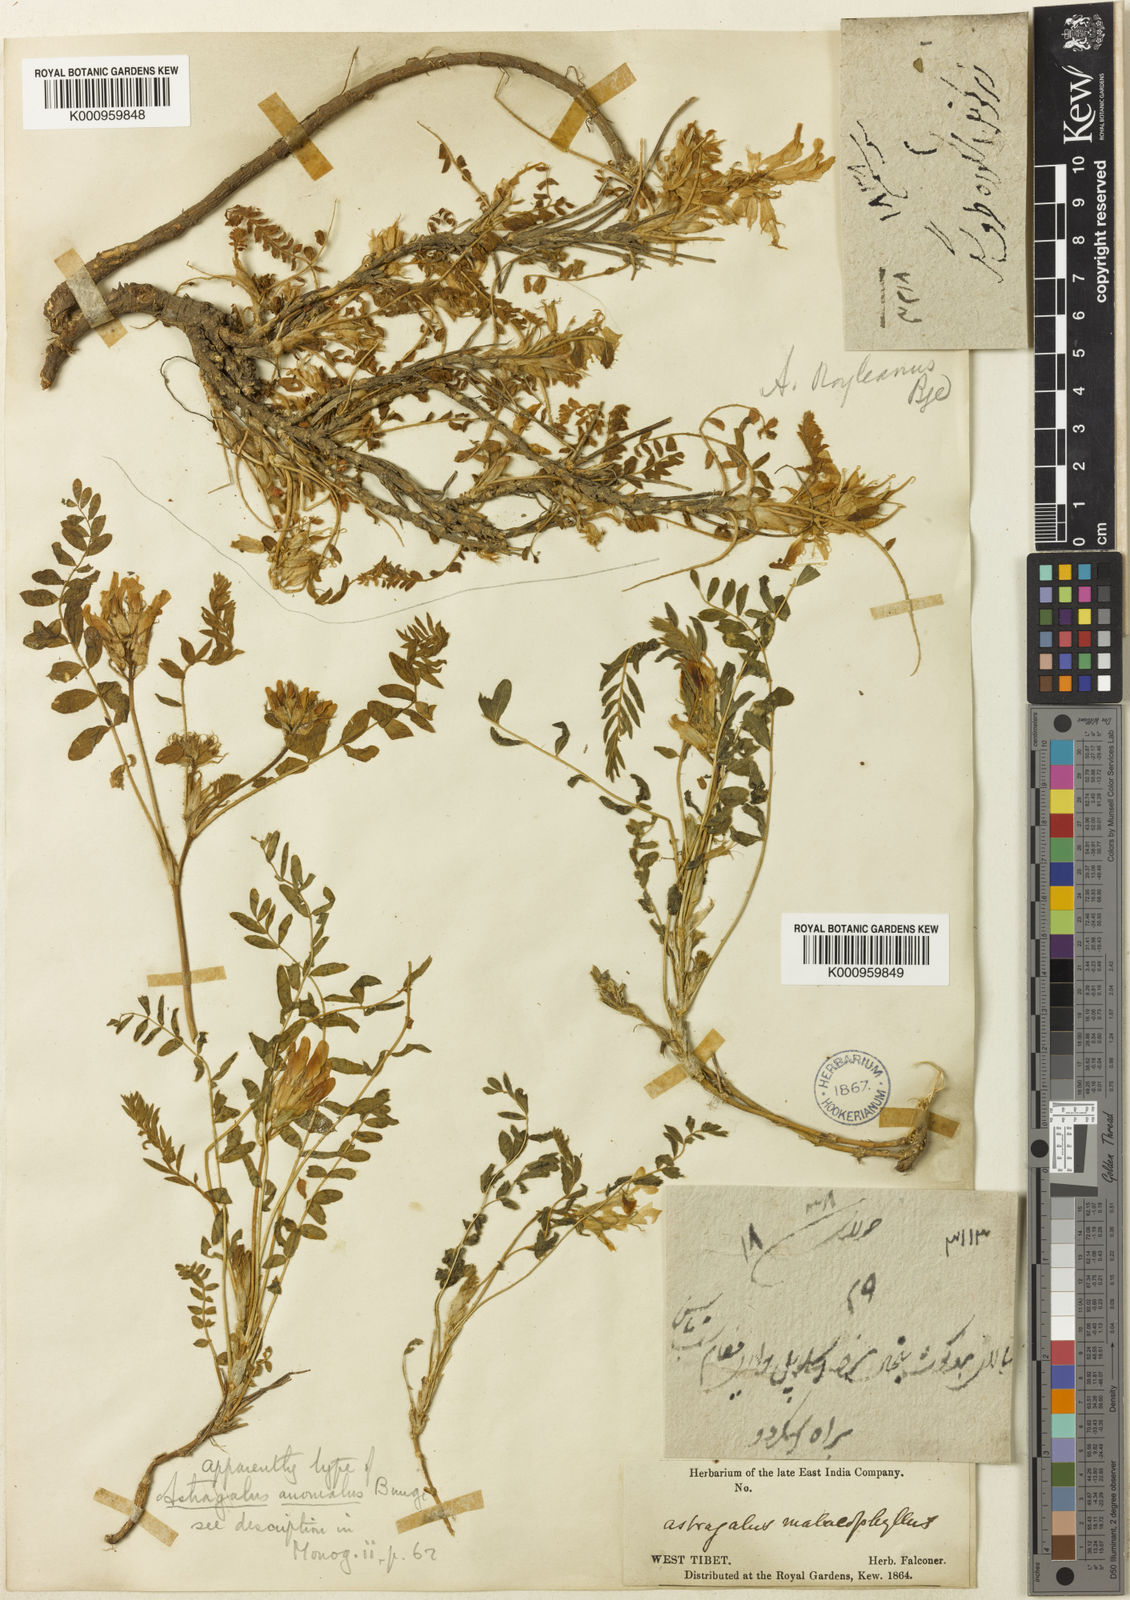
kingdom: Plantae
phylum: Tracheophyta
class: Magnoliopsida
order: Fabales
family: Fabaceae
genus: Astragalus
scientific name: Astragalus rhizanthus
